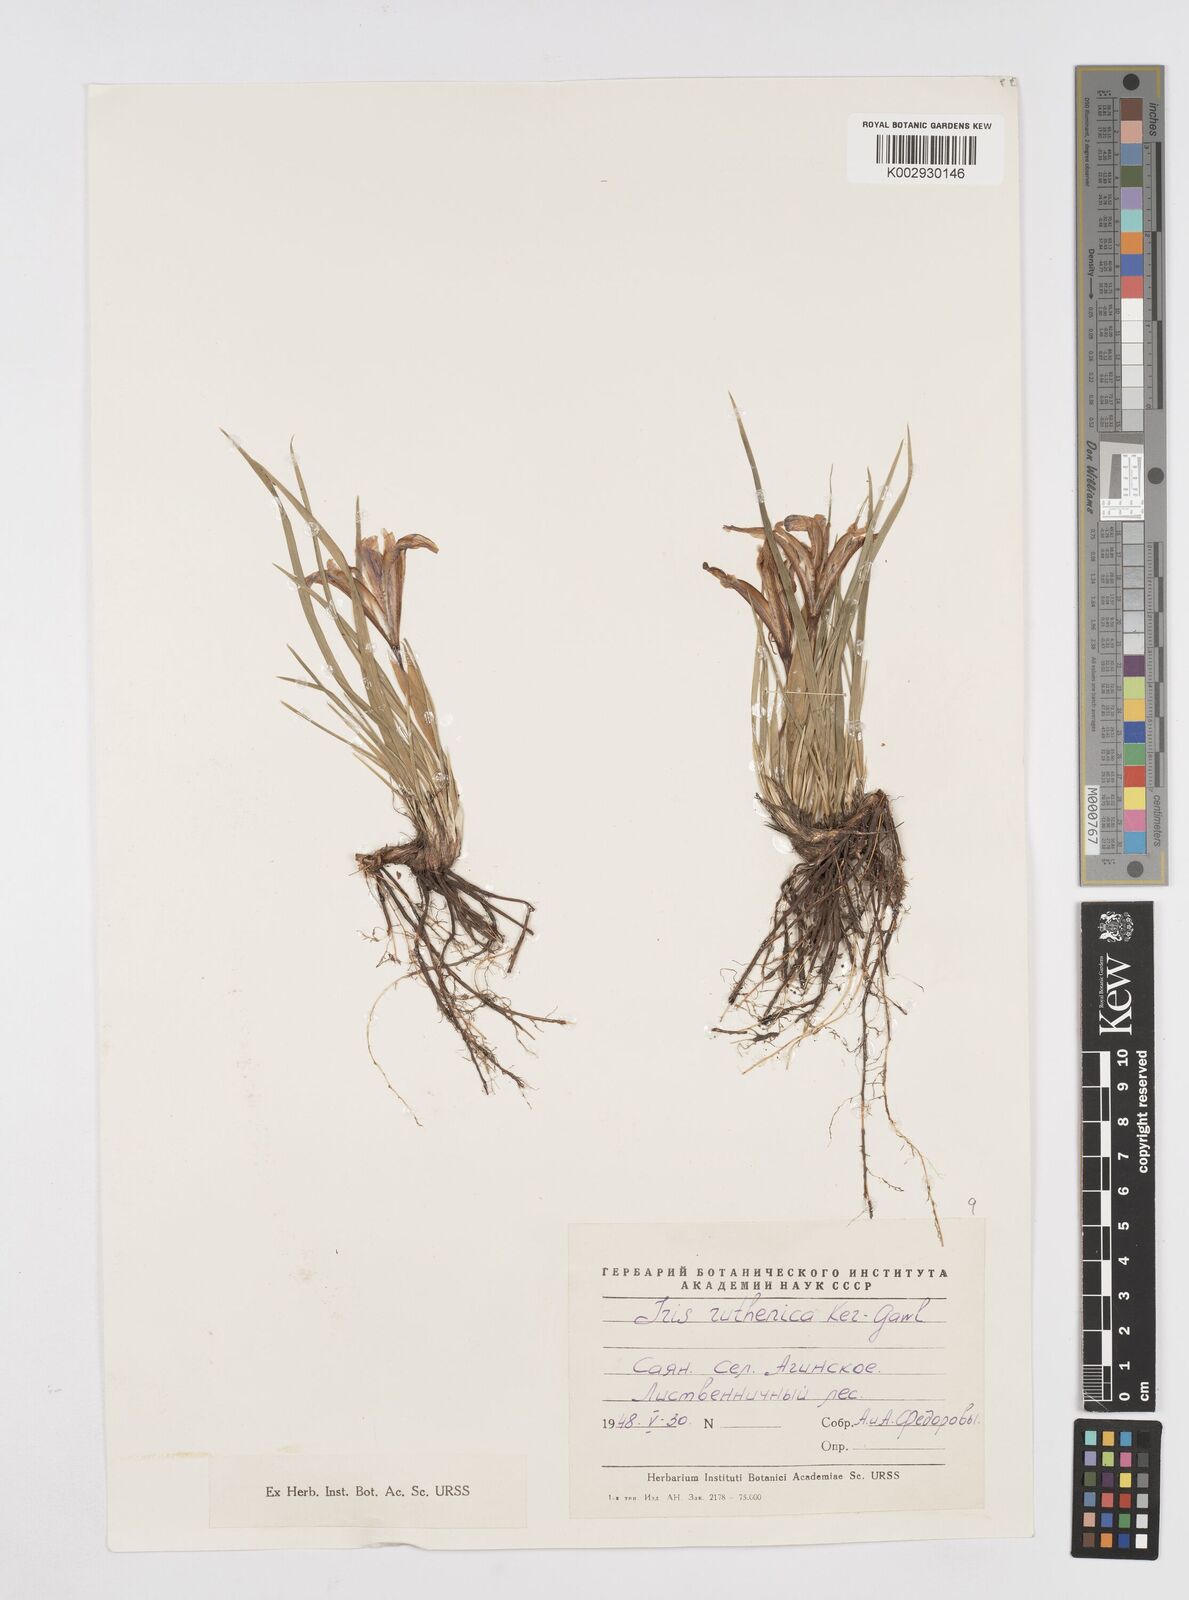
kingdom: Plantae
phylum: Tracheophyta
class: Liliopsida
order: Asparagales
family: Iridaceae
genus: Iris
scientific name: Iris ruthenica
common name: Purple-bract iris
